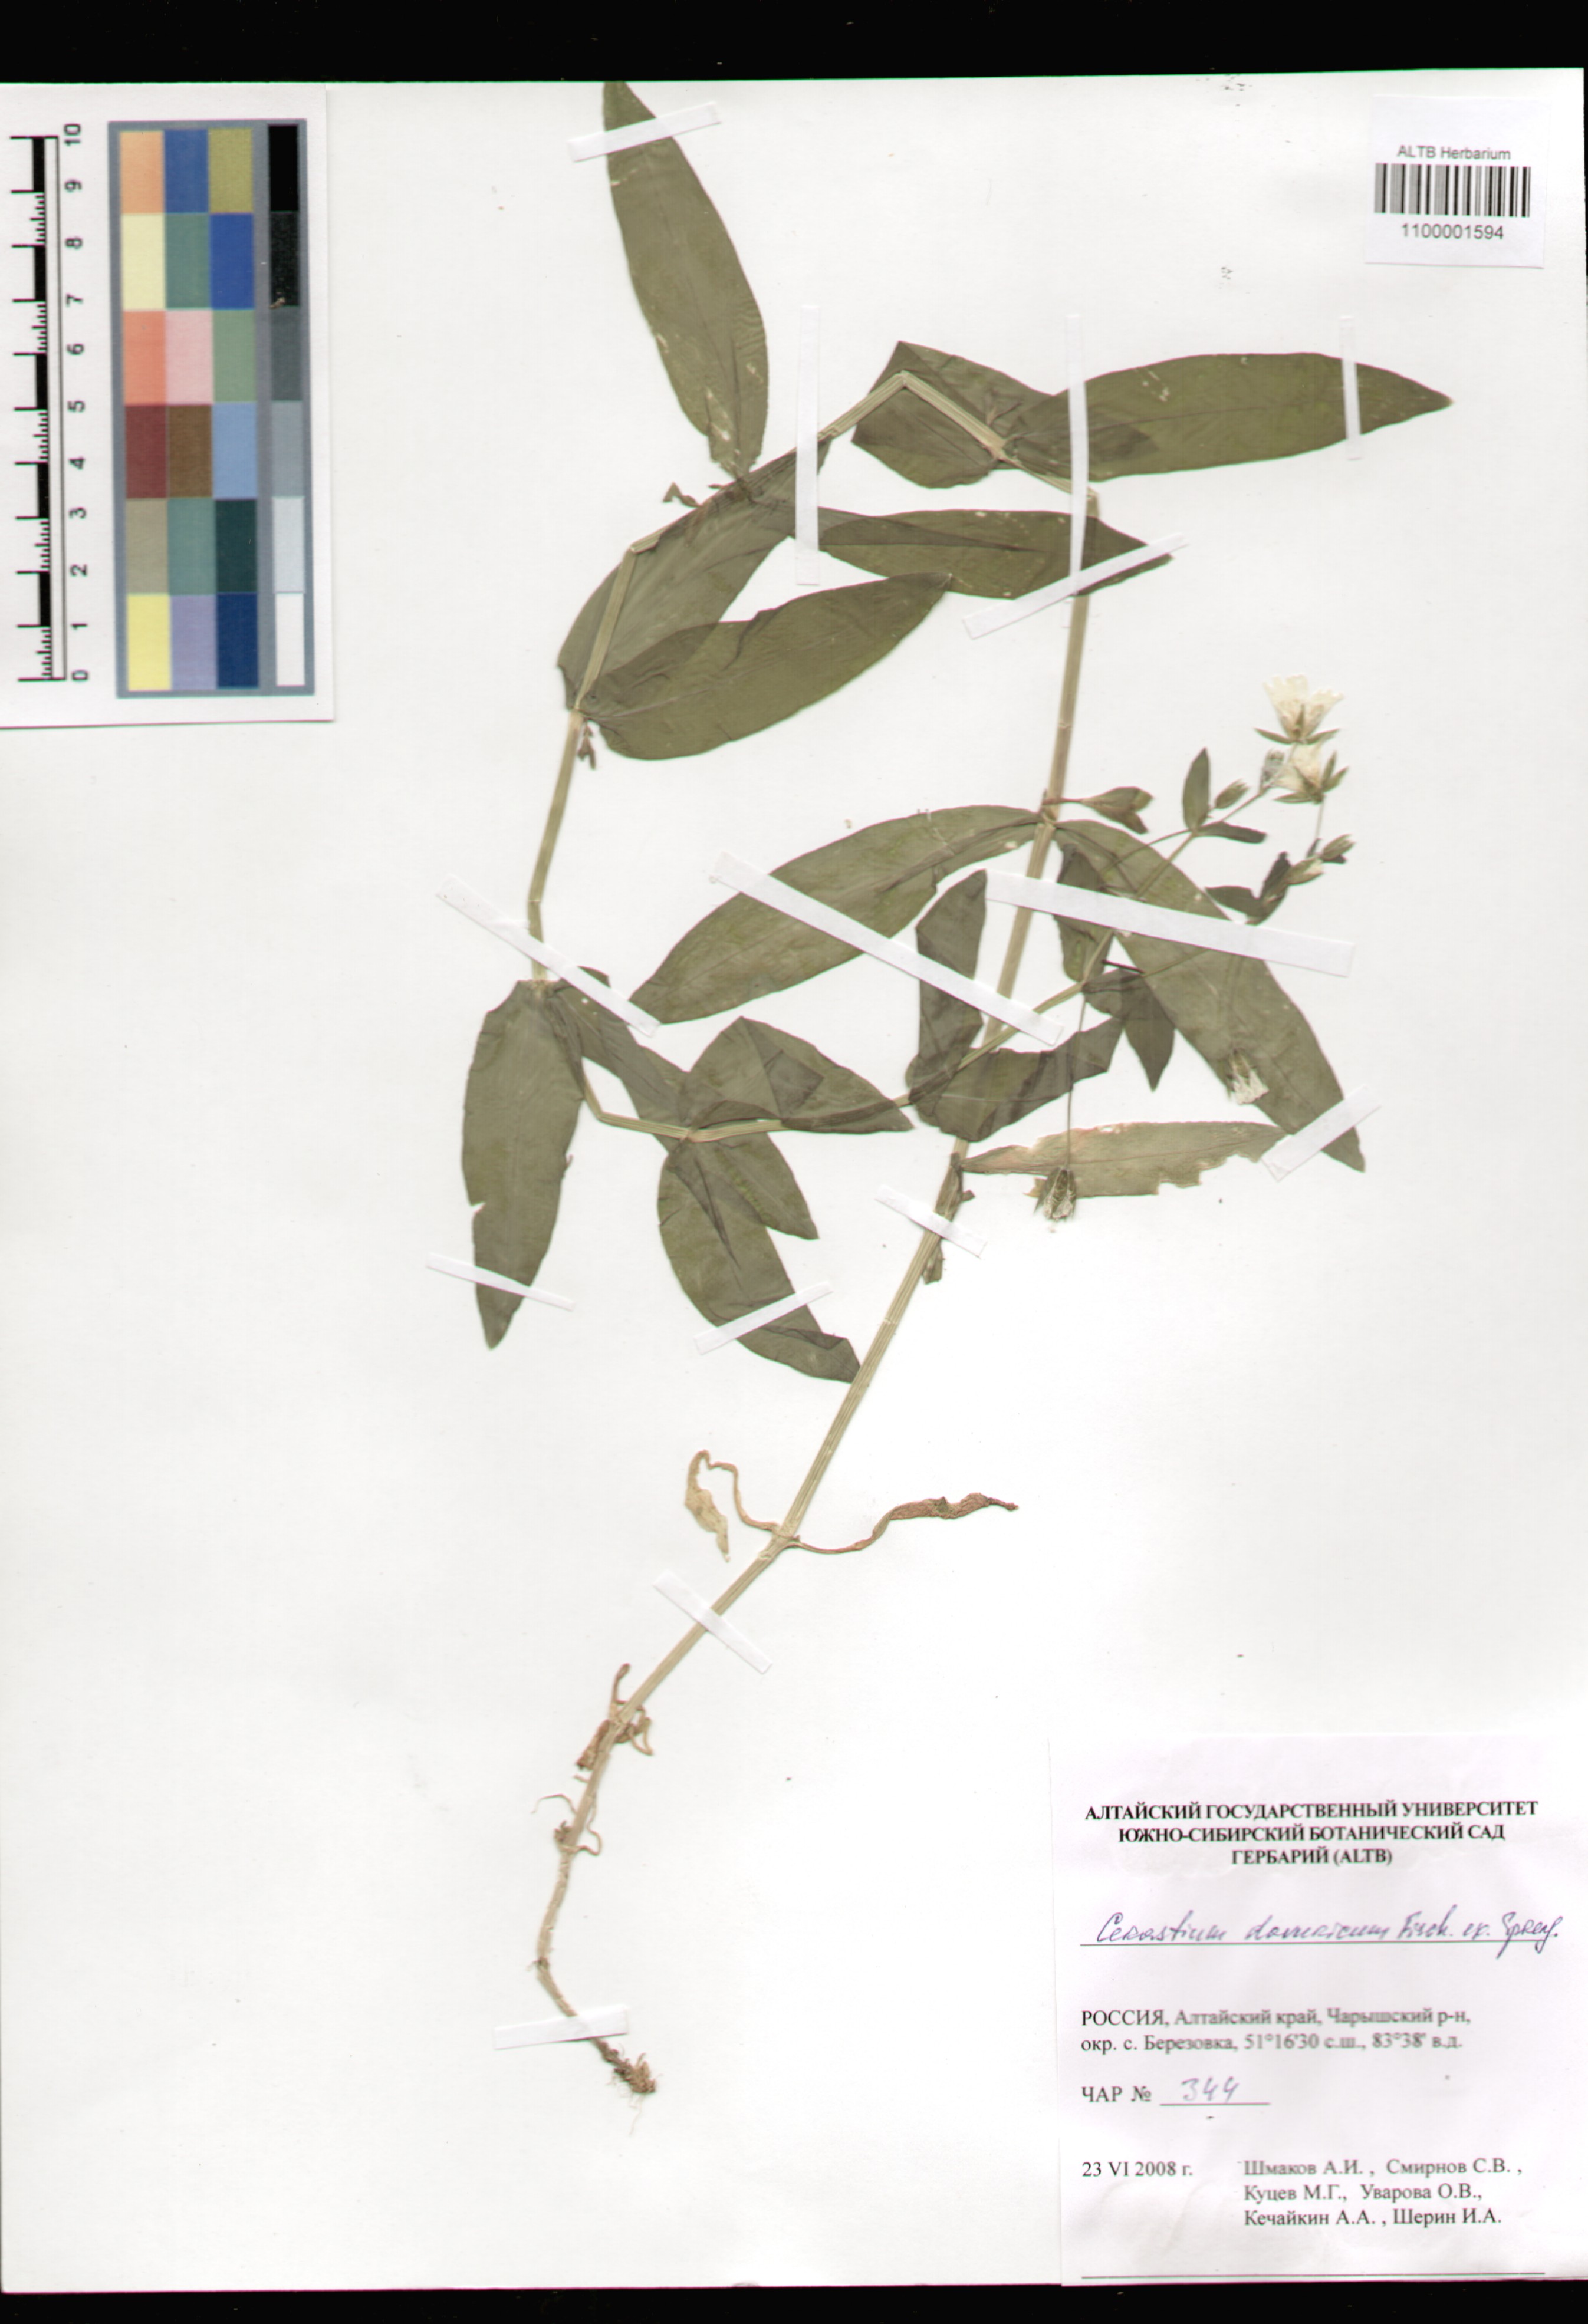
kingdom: Plantae
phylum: Tracheophyta
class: Magnoliopsida
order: Caryophyllales
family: Caryophyllaceae
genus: Dichodon
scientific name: Dichodon davuricum
